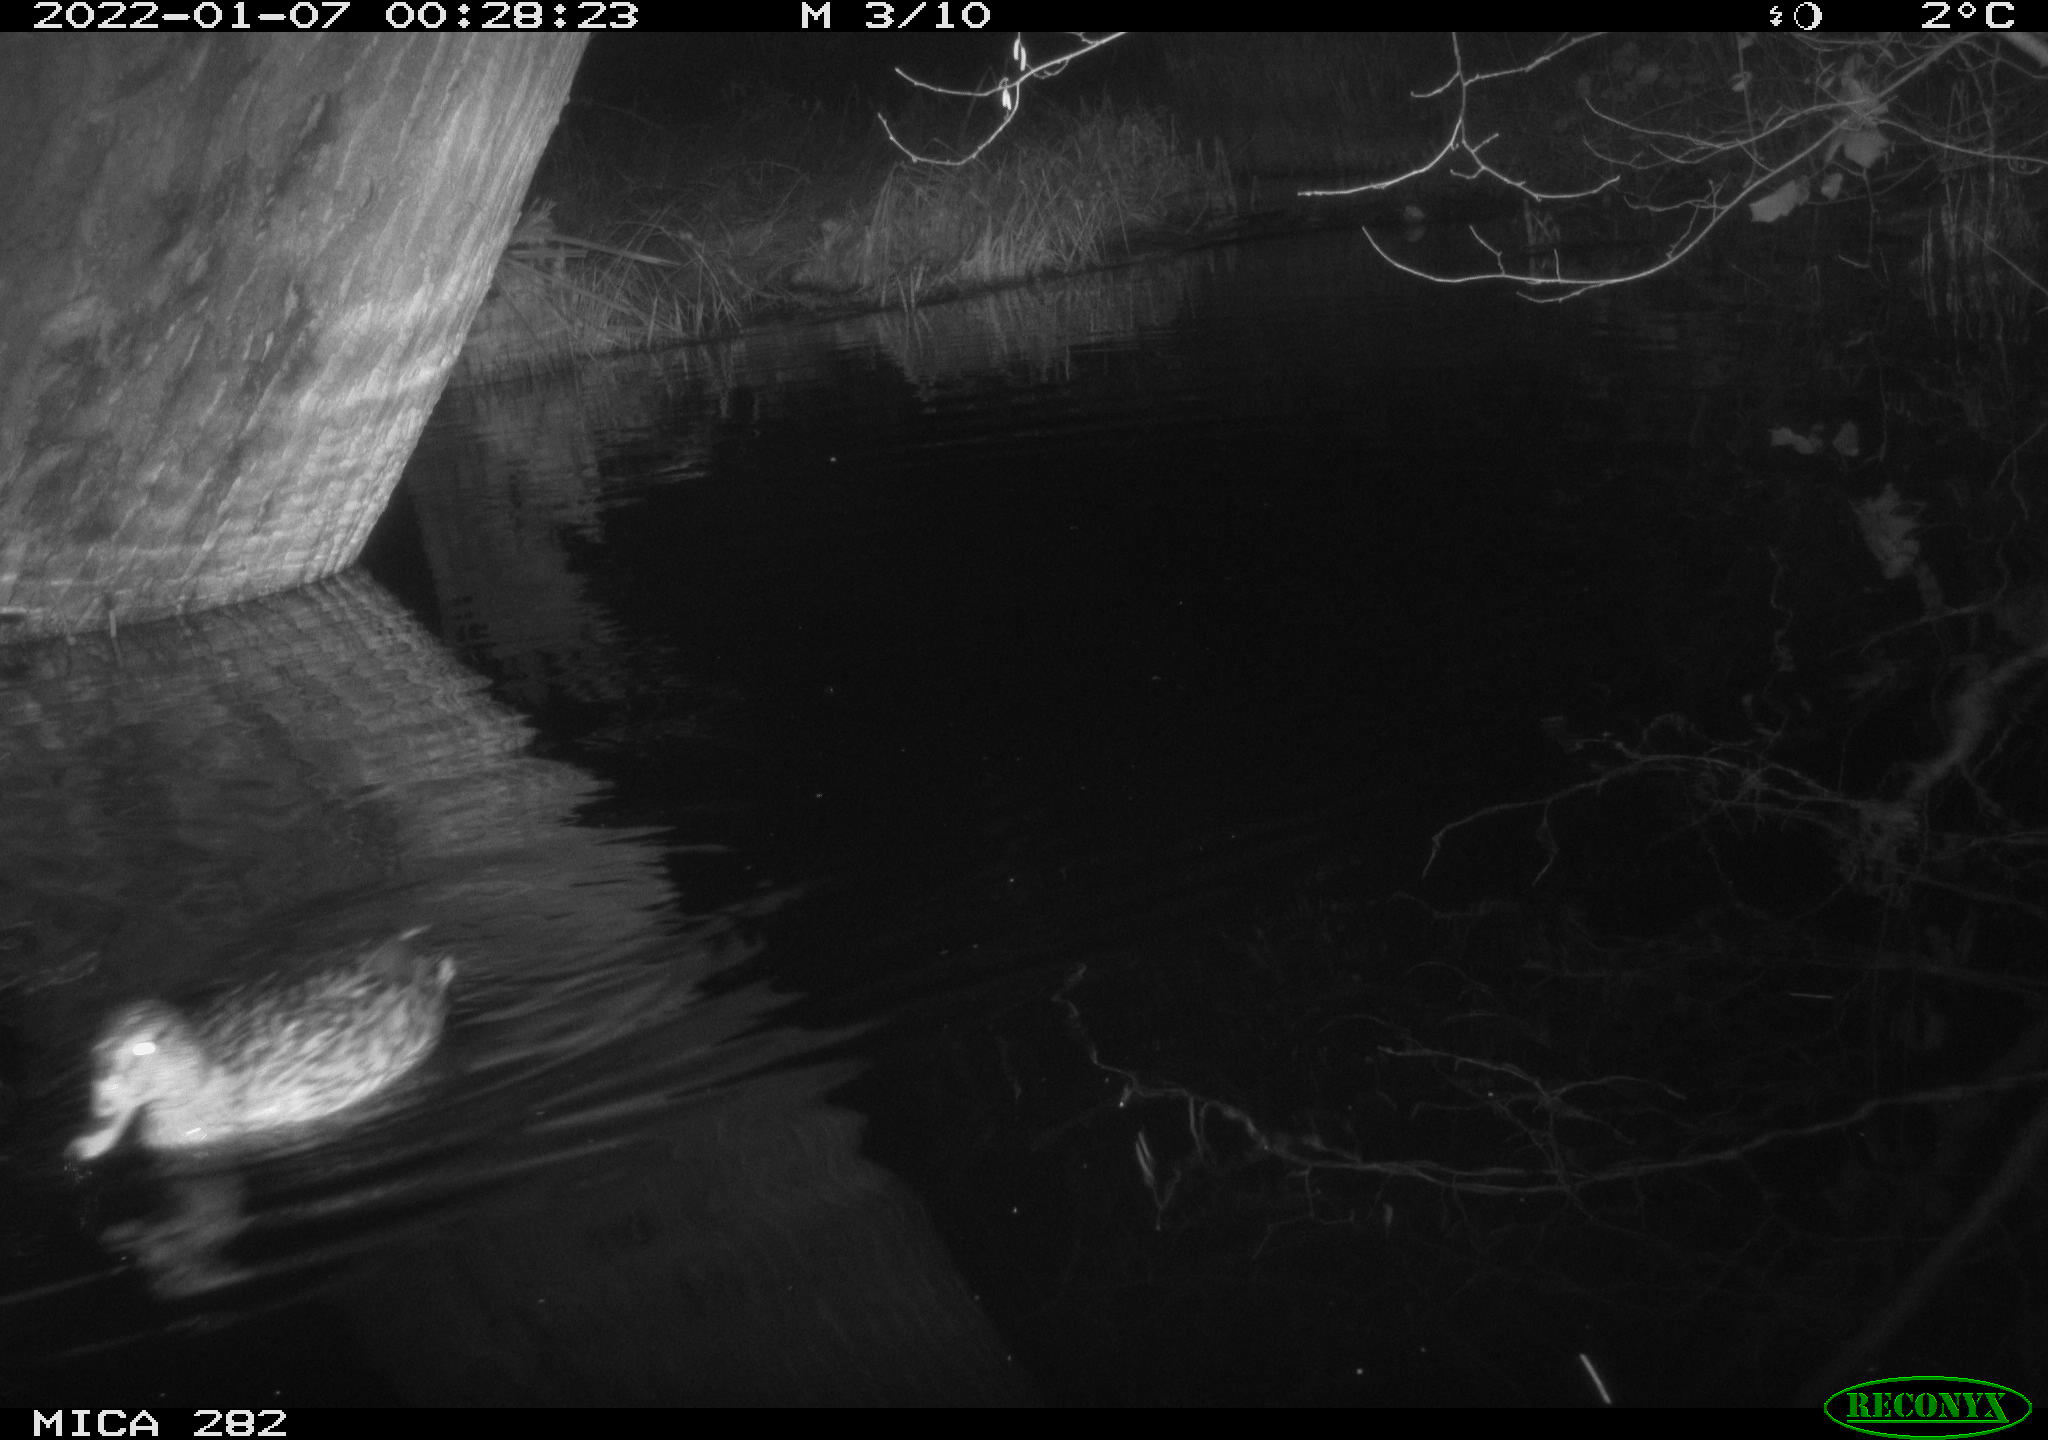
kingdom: Animalia
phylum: Chordata
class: Aves
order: Anseriformes
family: Anatidae
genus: Anas
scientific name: Anas platyrhynchos
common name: Mallard
